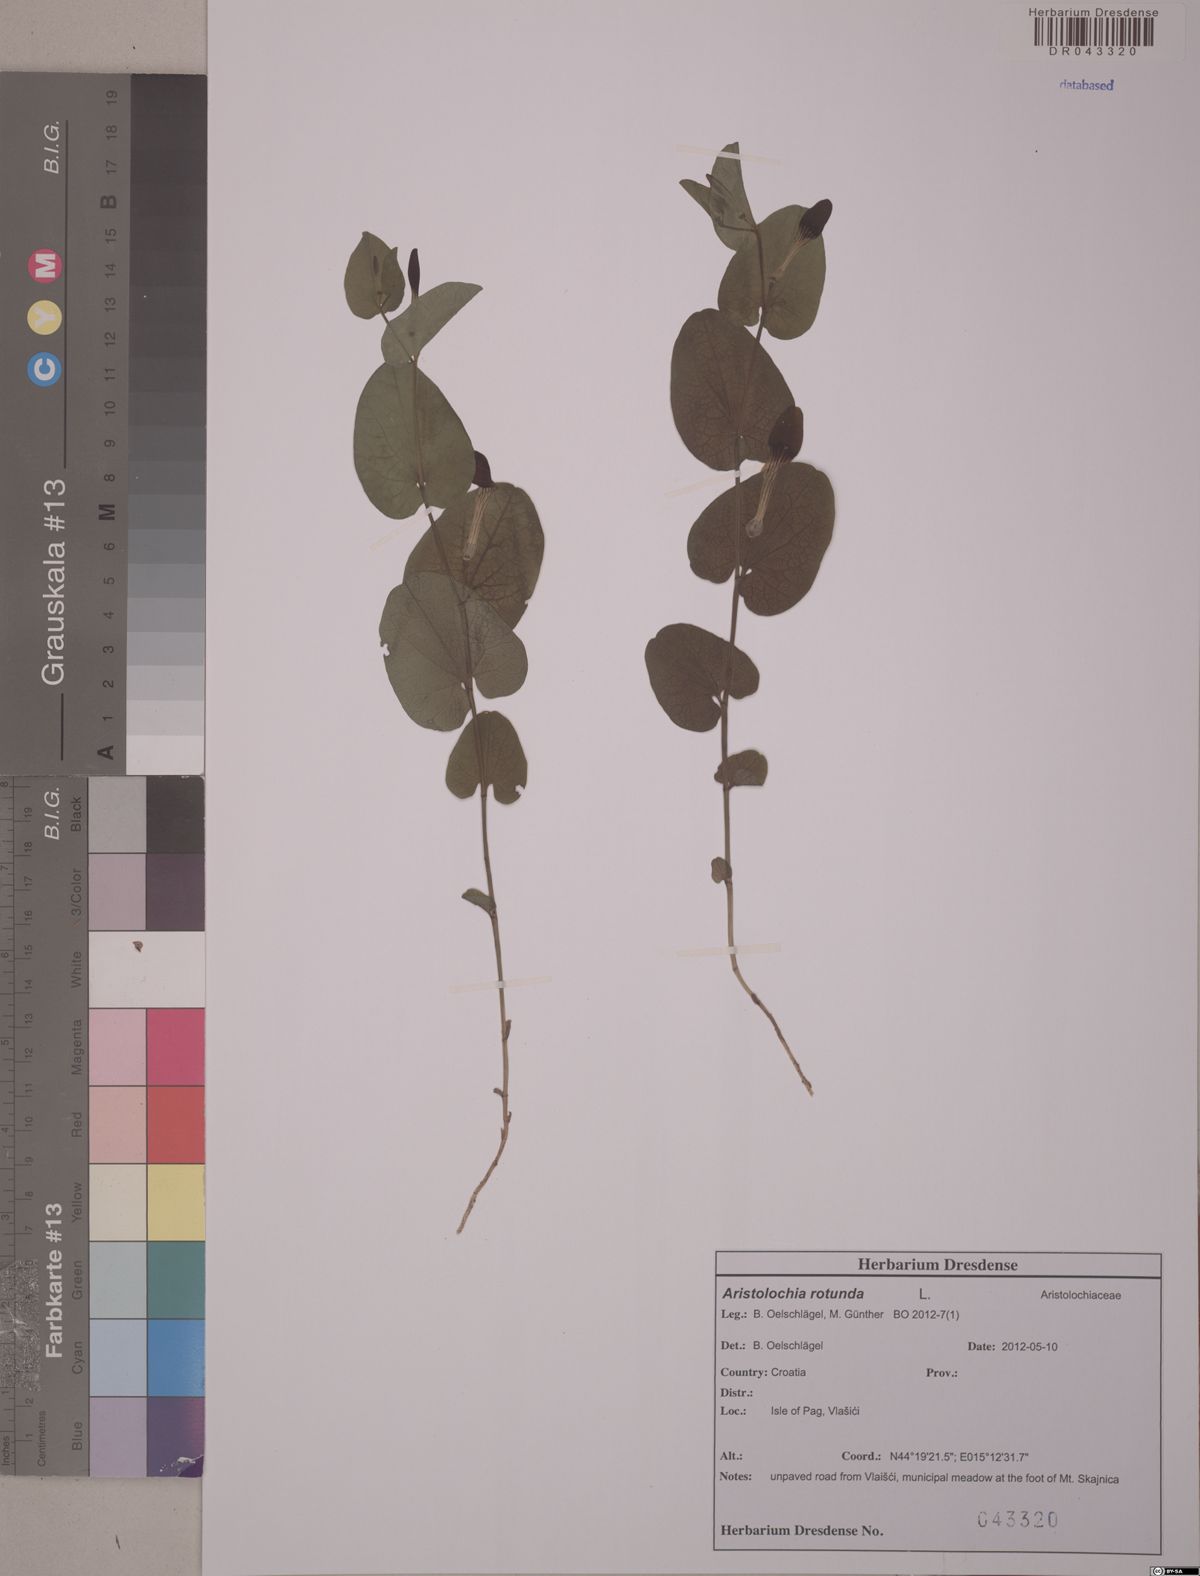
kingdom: Plantae
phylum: Tracheophyta
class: Magnoliopsida
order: Piperales
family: Aristolochiaceae
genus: Aristolochia
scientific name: Aristolochia rotunda
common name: Smearwort
